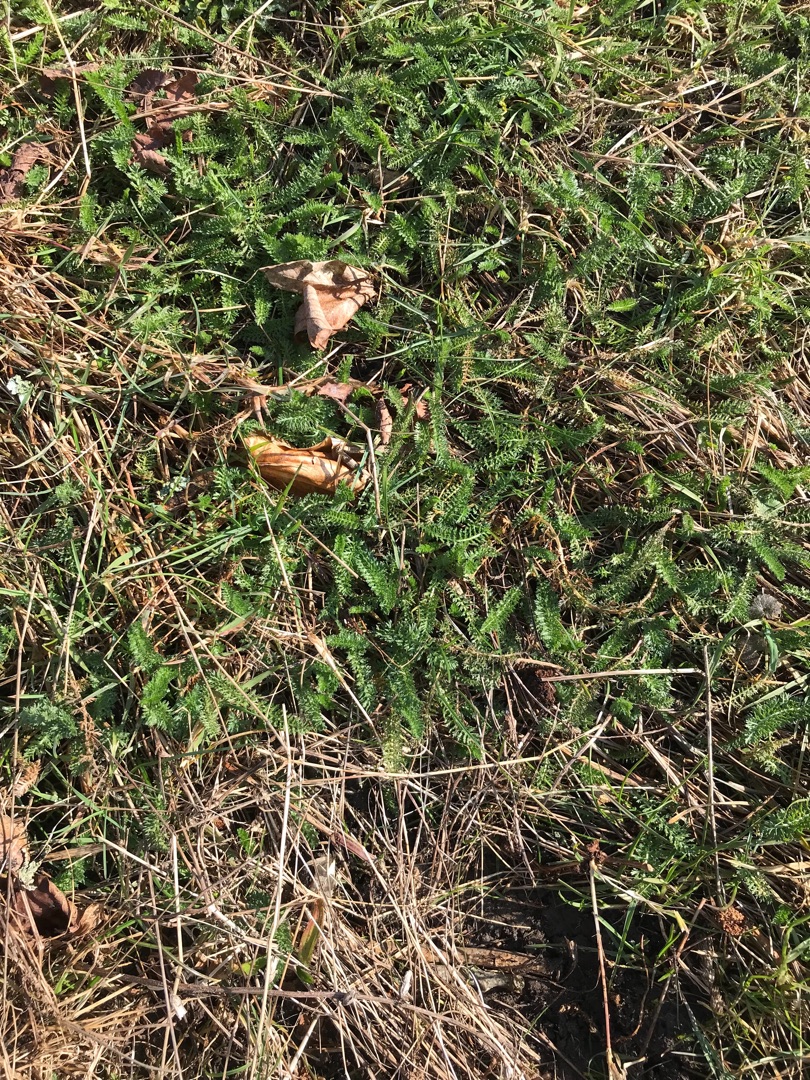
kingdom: Plantae
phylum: Tracheophyta
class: Magnoliopsida
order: Asterales
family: Asteraceae
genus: Achillea
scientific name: Achillea millefolium
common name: Almindelig røllike
